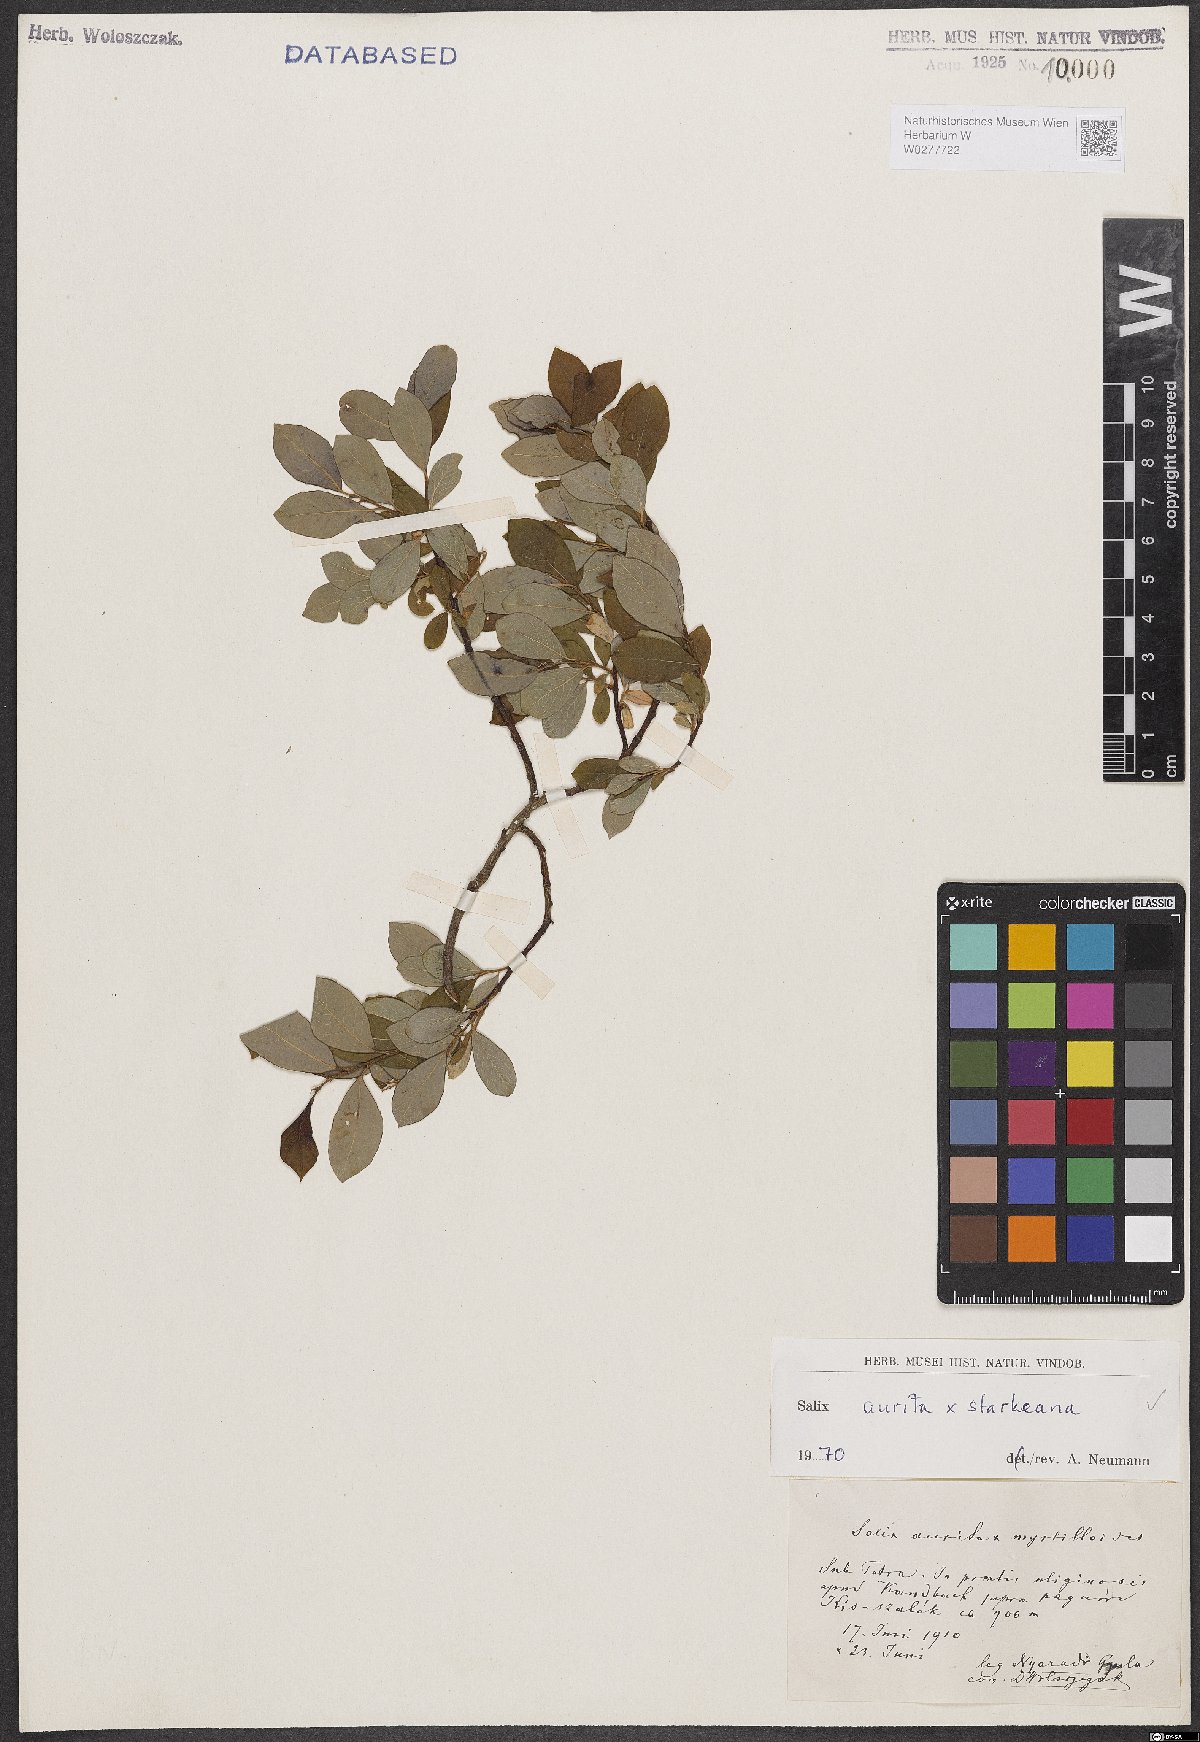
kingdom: Plantae
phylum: Tracheophyta
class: Magnoliopsida
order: Malpighiales
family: Salicaceae
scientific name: Salicaceae
